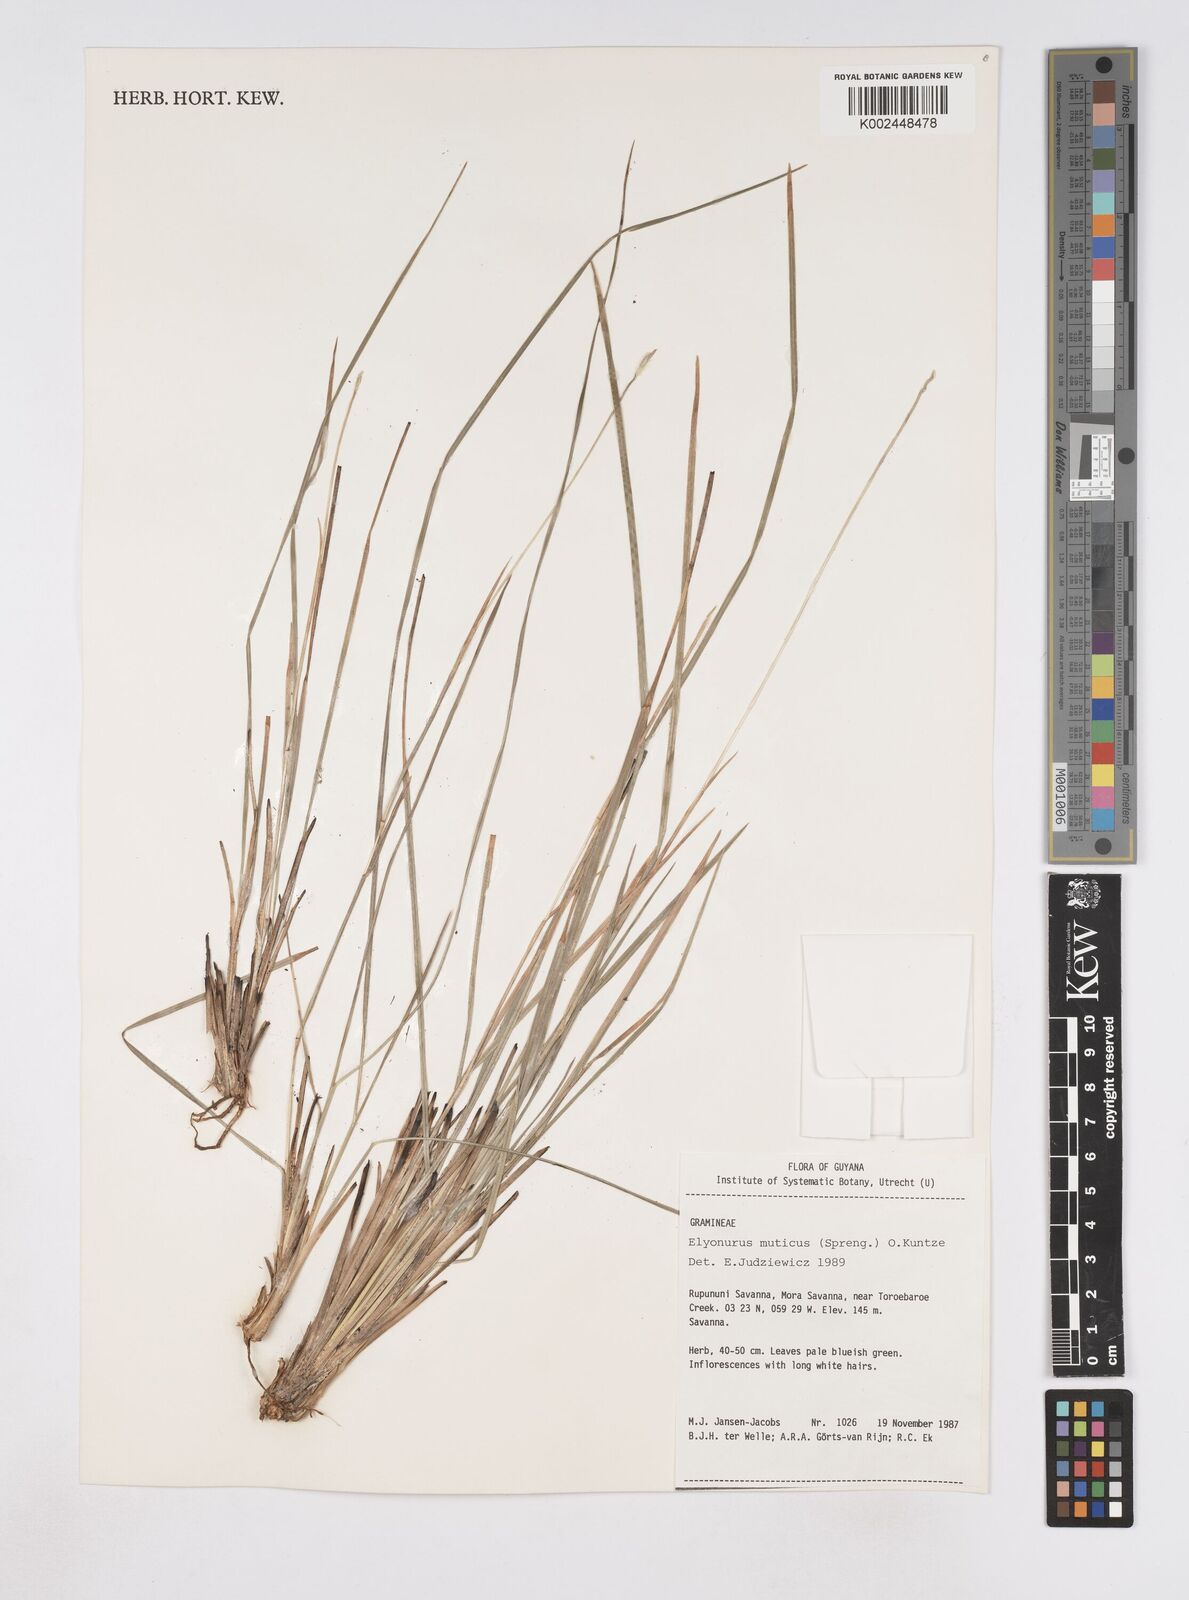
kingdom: Plantae
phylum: Tracheophyta
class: Liliopsida
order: Poales
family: Poaceae
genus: Elionurus
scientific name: Elionurus planifolius
